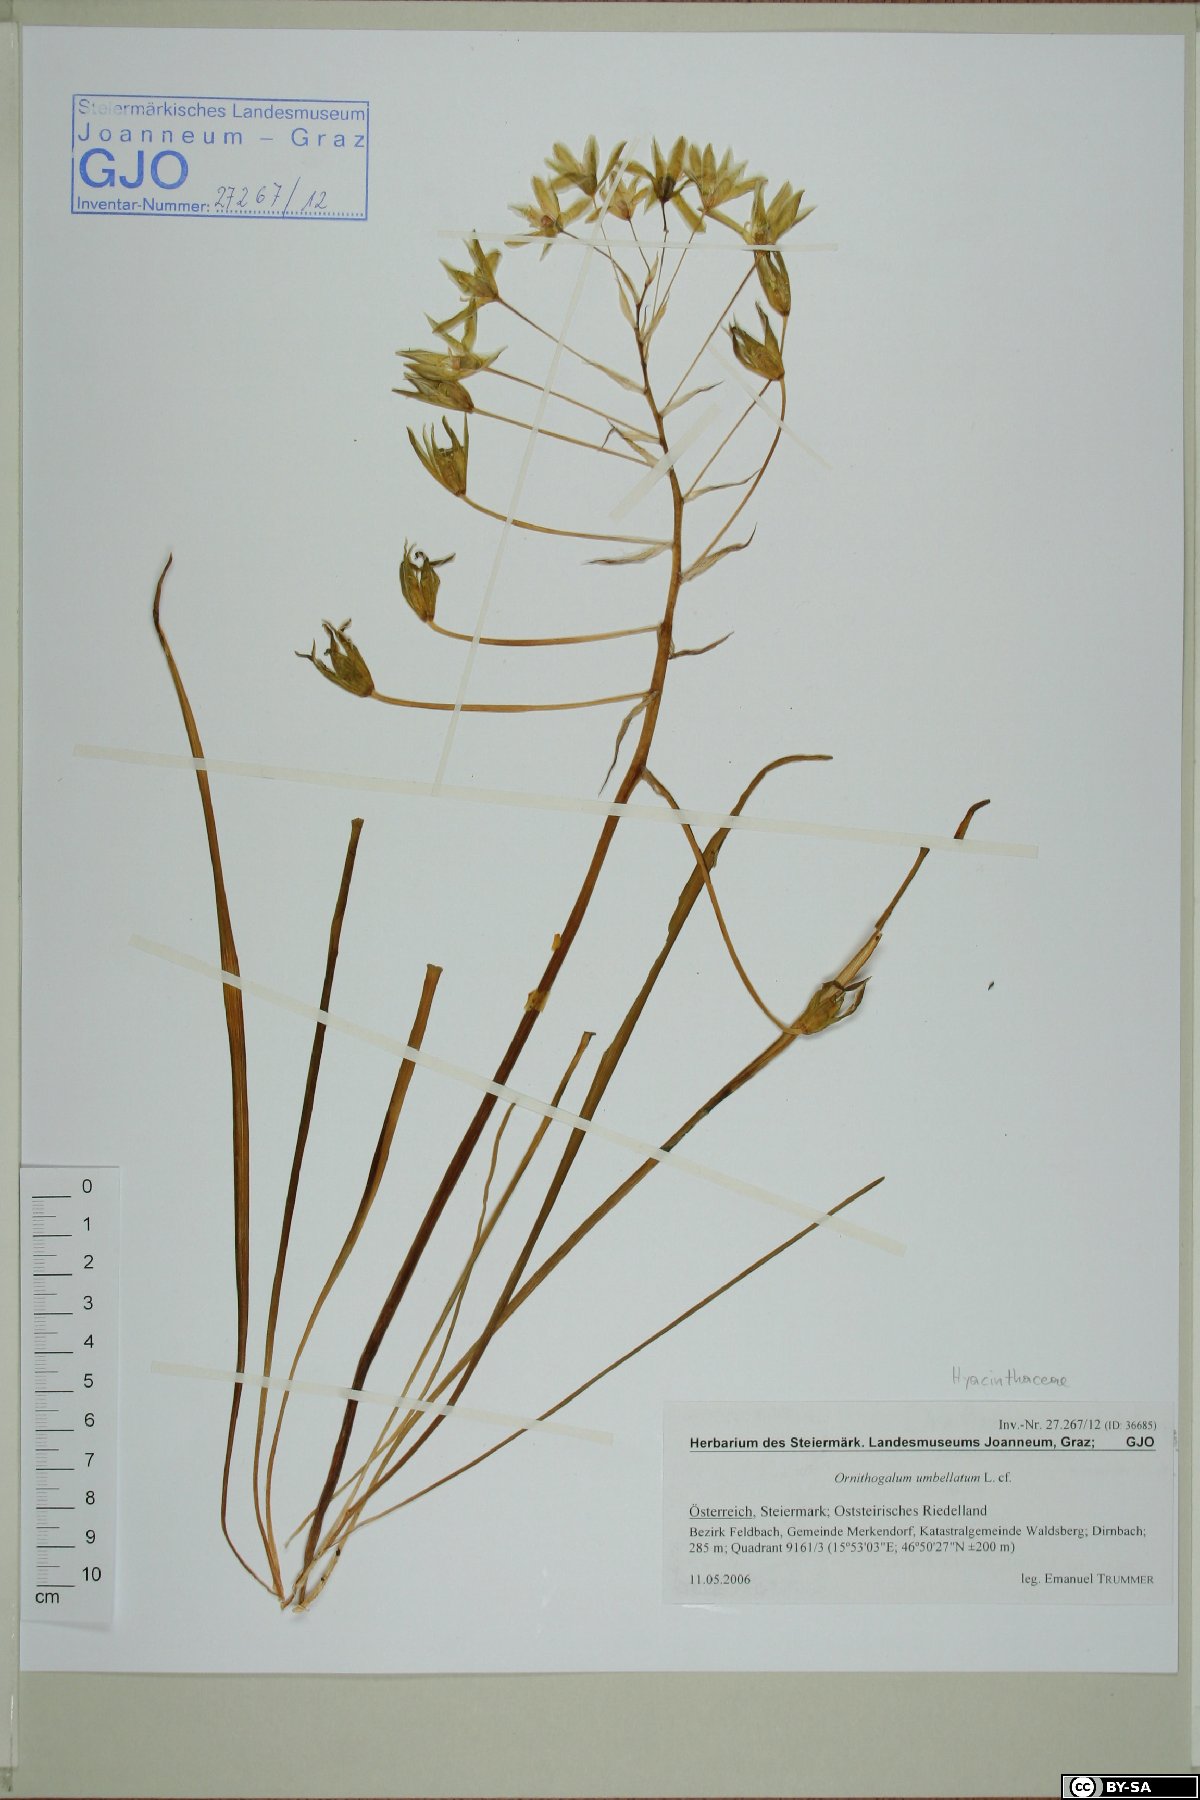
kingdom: Plantae
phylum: Tracheophyta
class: Liliopsida
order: Asparagales
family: Asparagaceae
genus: Ornithogalum
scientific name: Ornithogalum umbellatum
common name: Garden star-of-bethlehem
